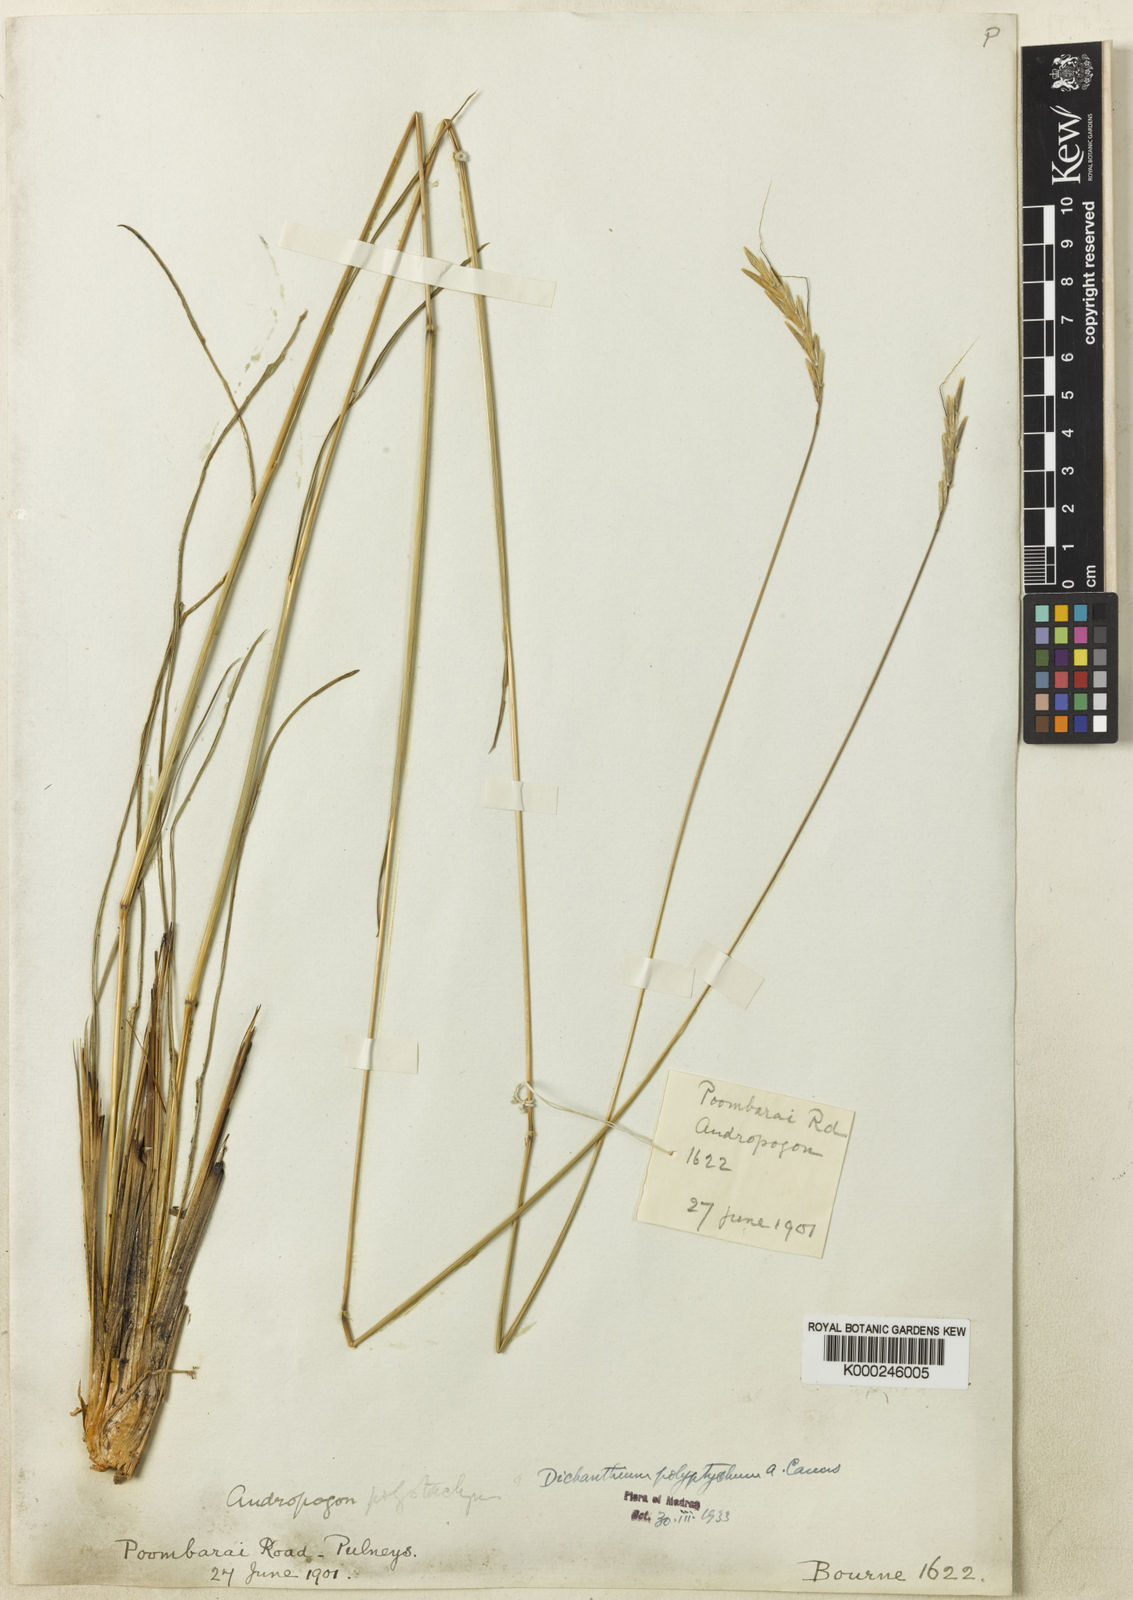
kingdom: Plantae
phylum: Tracheophyta
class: Liliopsida
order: Poales
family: Poaceae
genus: Andropogon
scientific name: Andropogon polyptychos
